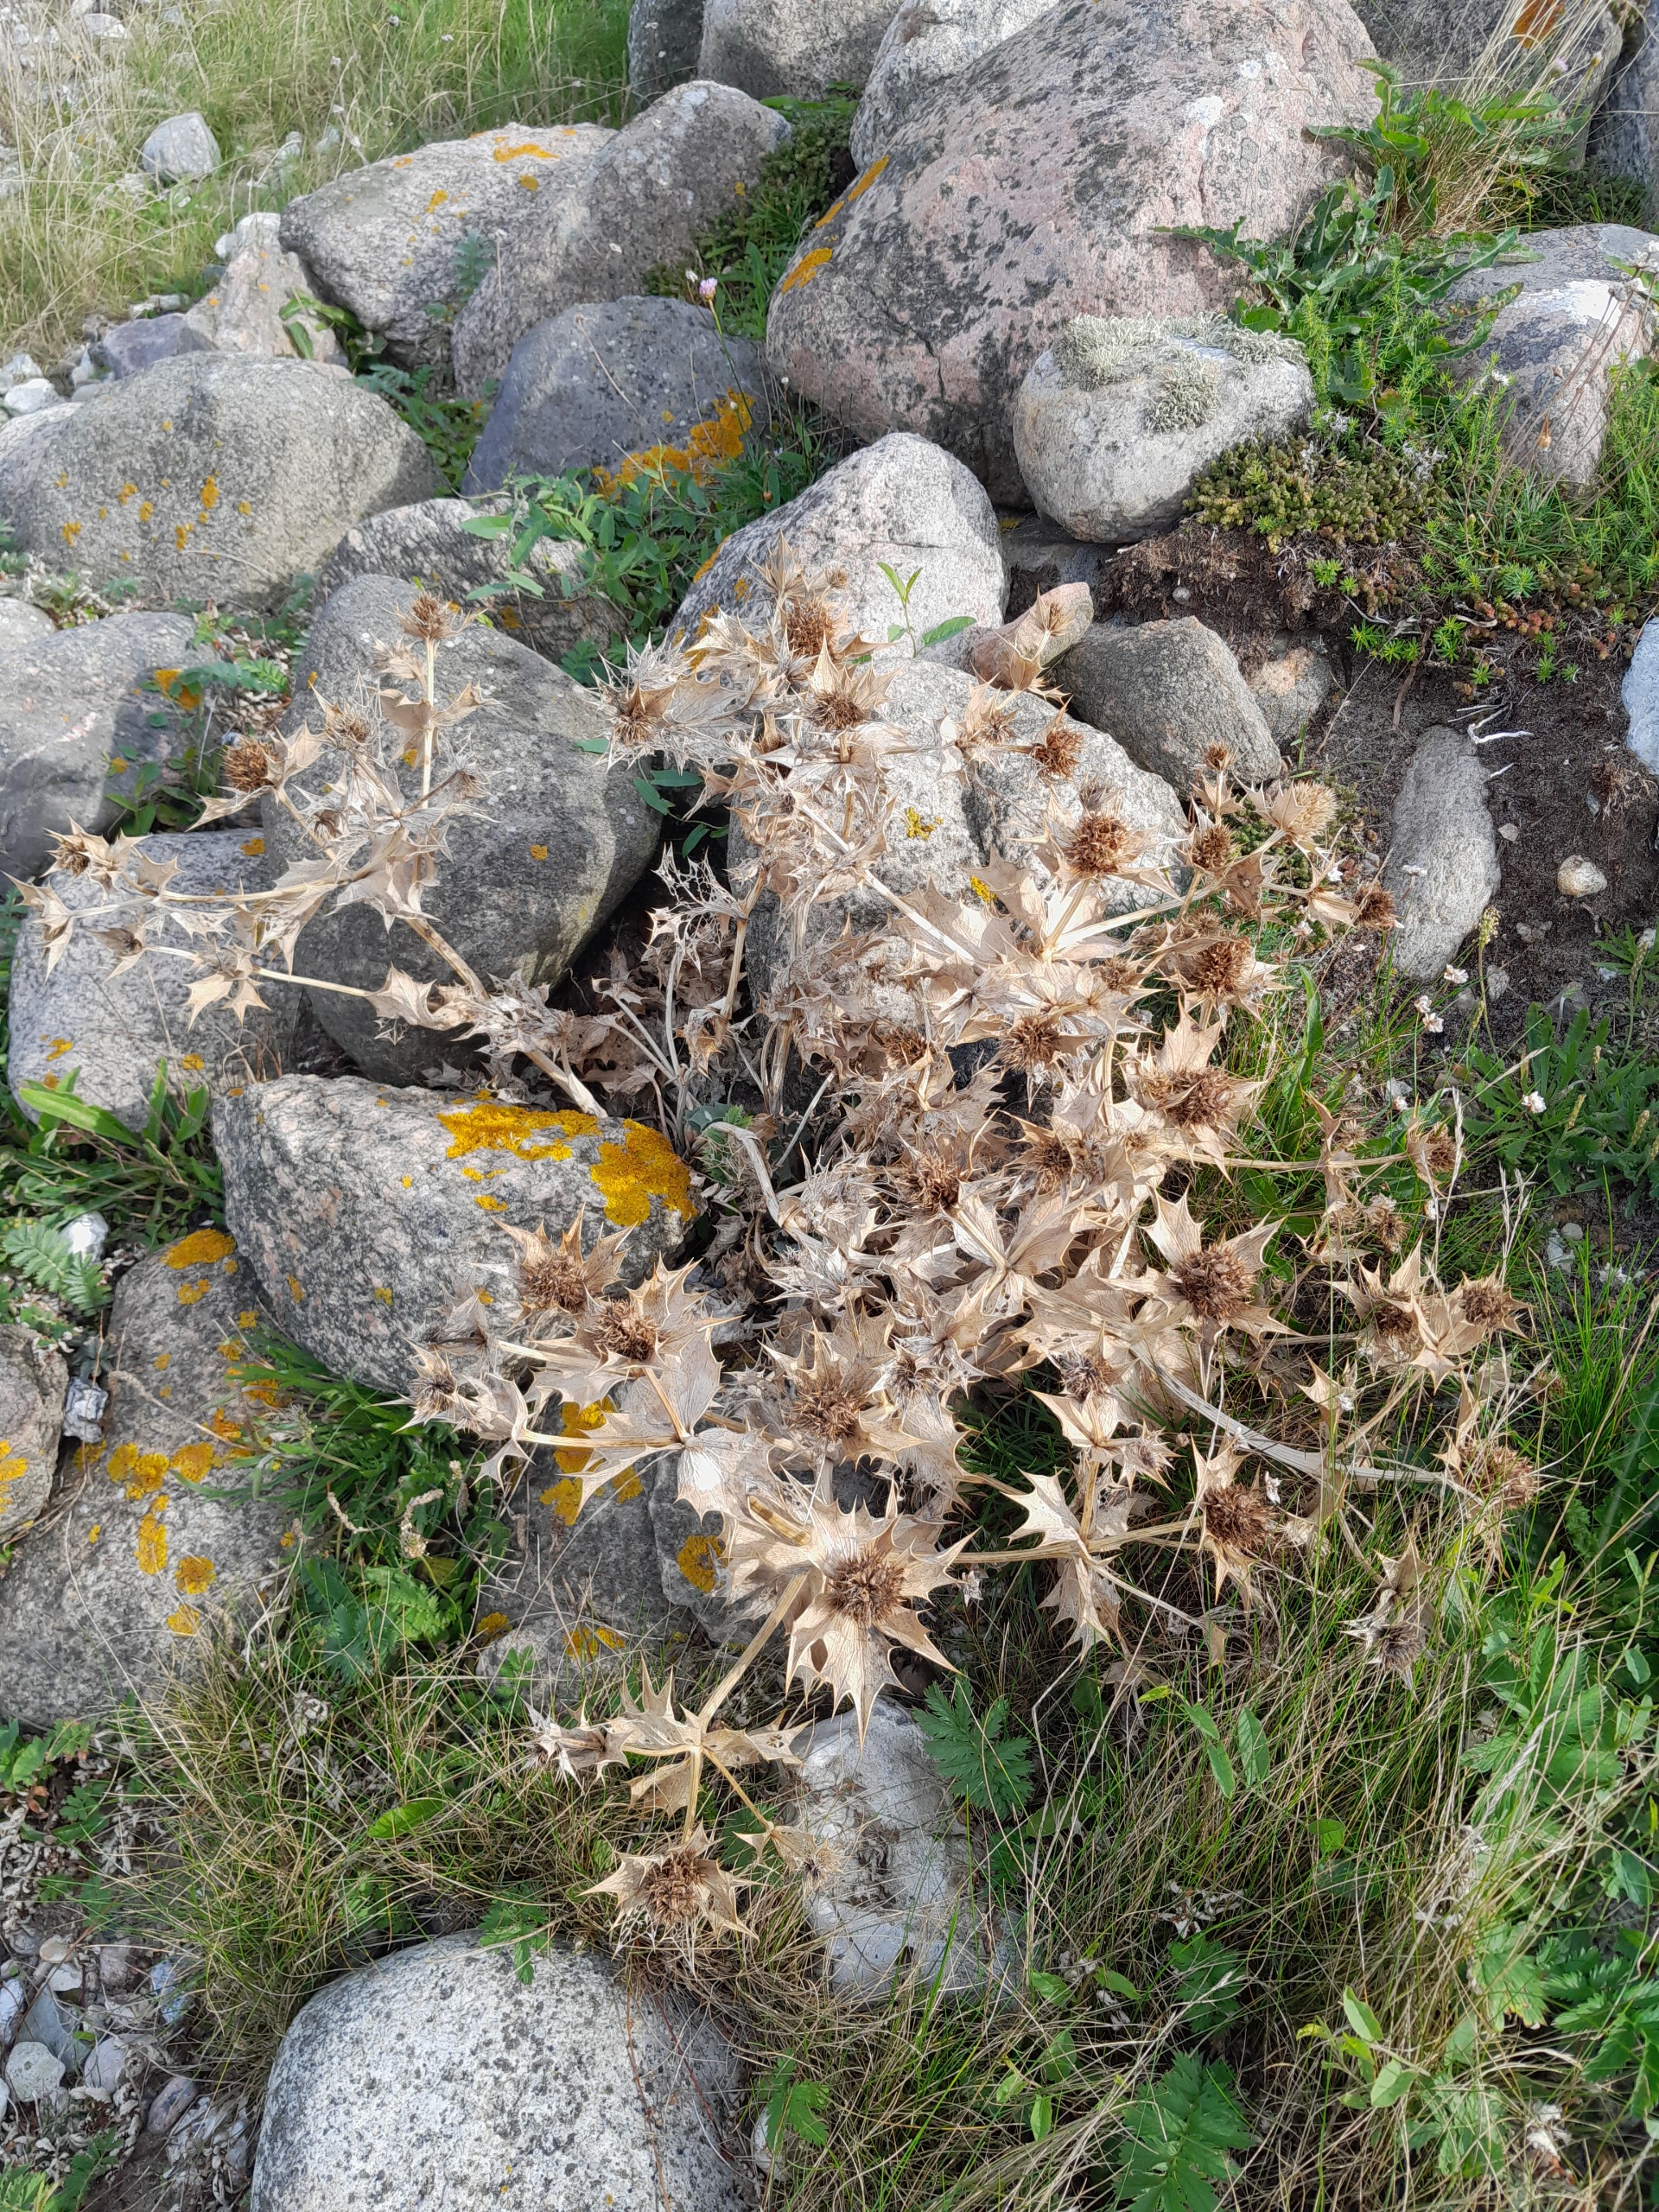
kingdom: Plantae
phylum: Tracheophyta
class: Magnoliopsida
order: Apiales
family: Apiaceae
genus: Eryngium
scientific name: Eryngium maritimum
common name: Strand-mandstro
